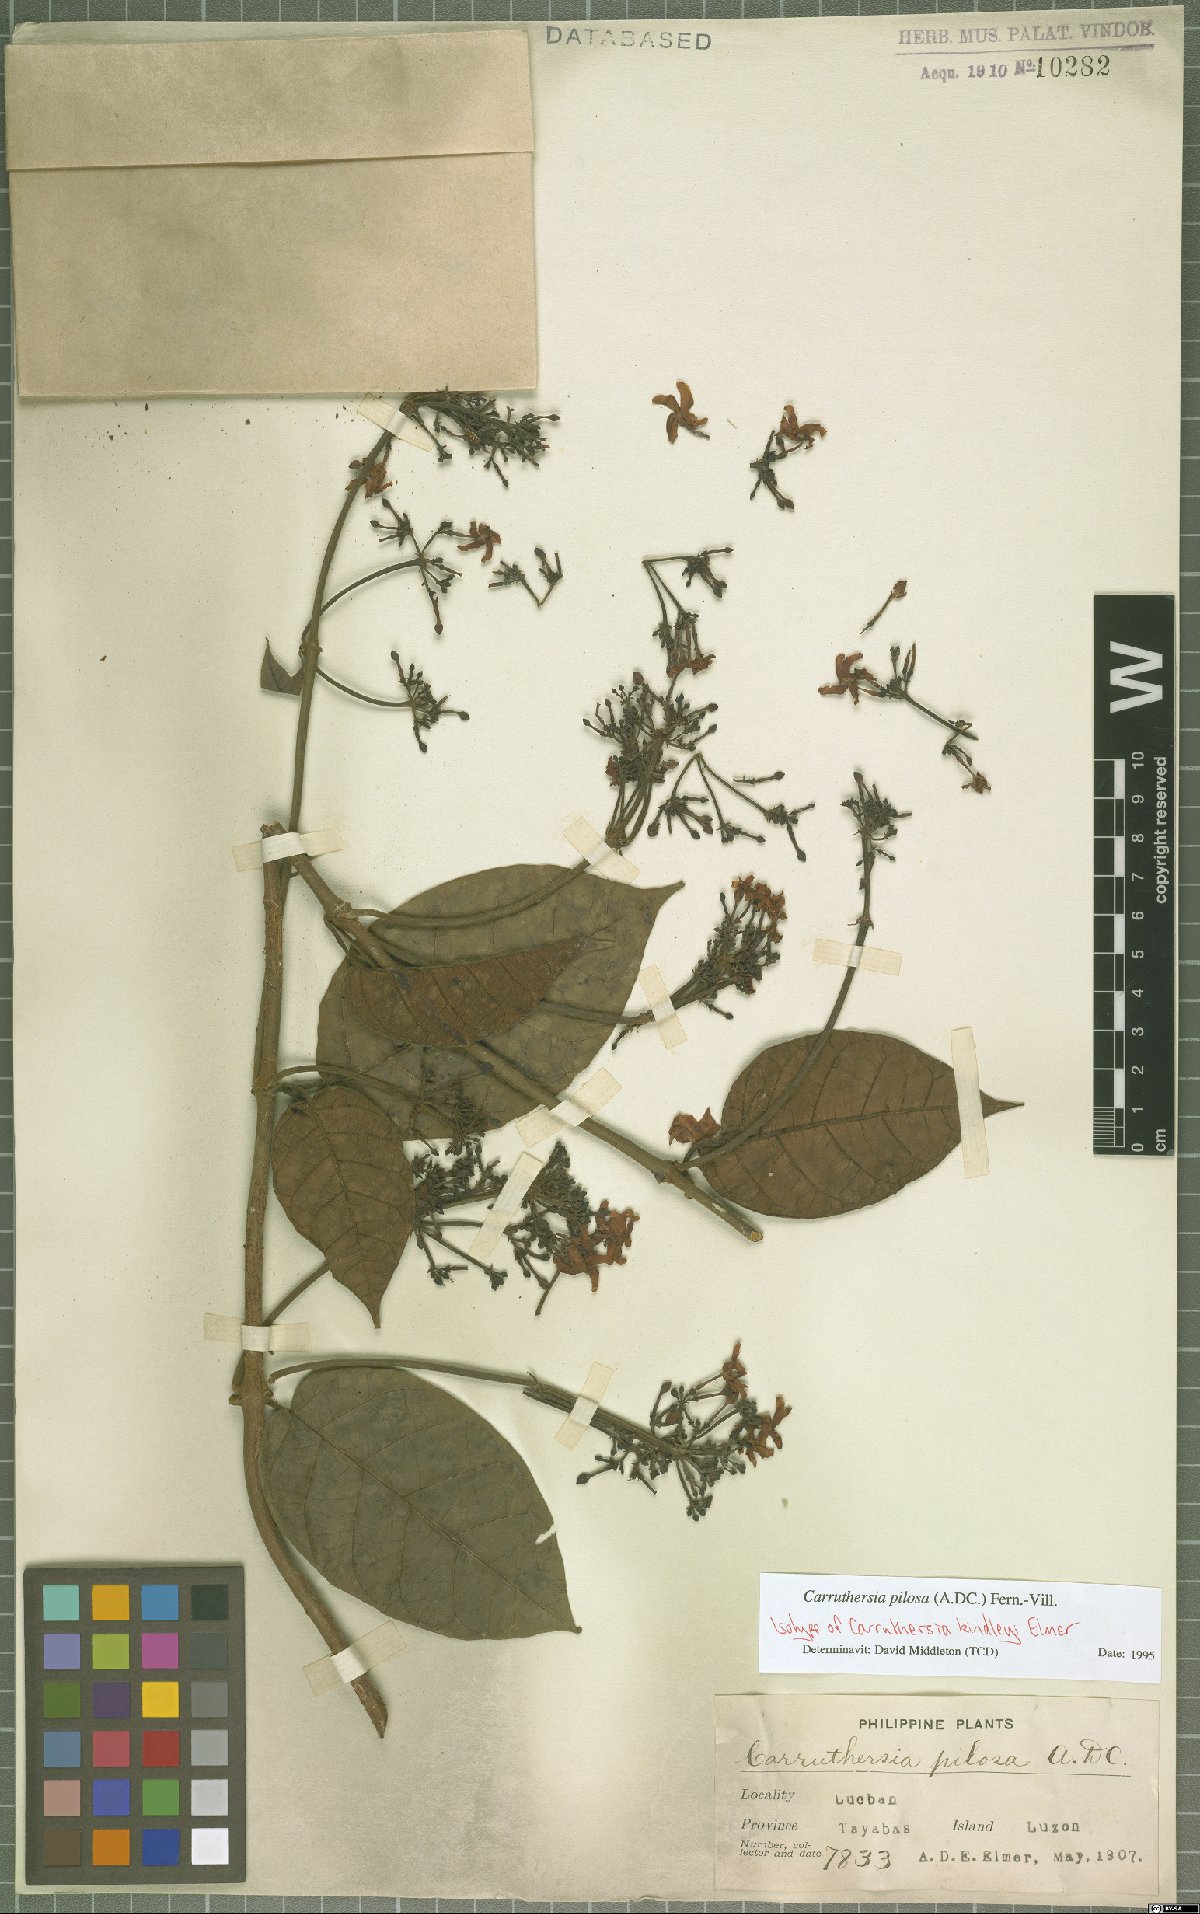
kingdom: Plantae
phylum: Tracheophyta
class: Magnoliopsida
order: Gentianales
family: Apocynaceae
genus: Carruthersia
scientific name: Carruthersia pilosa
